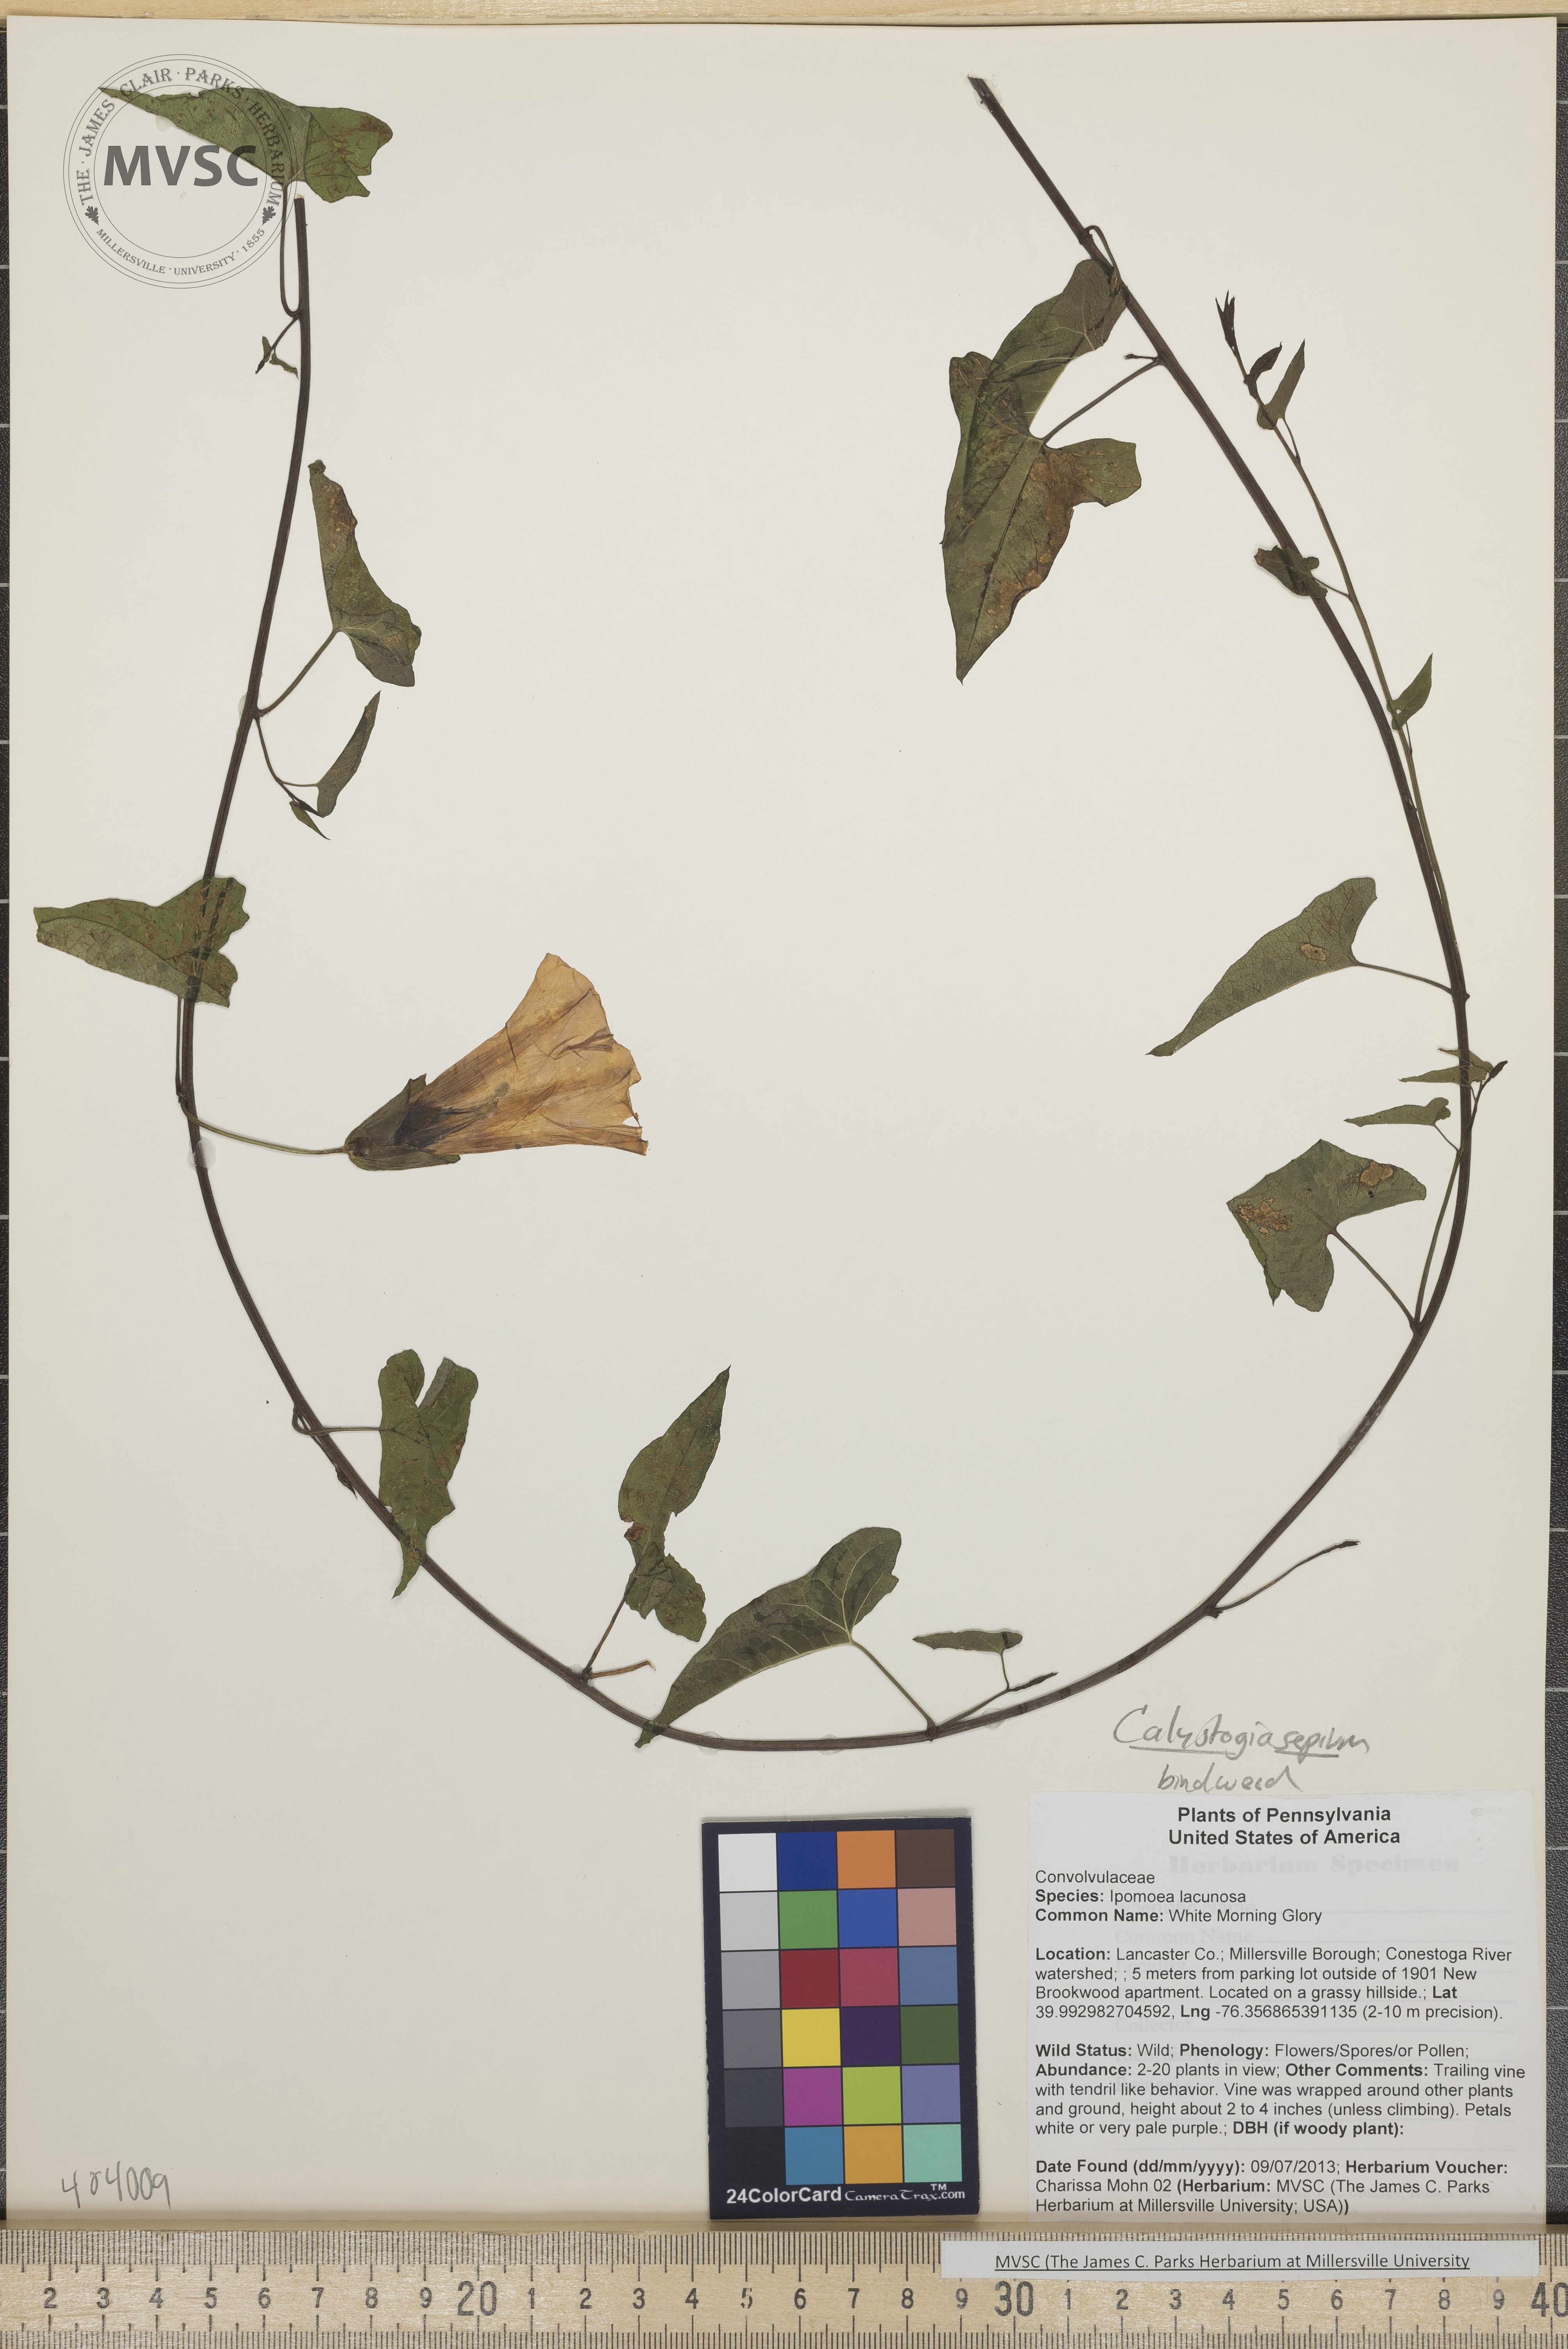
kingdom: Plantae
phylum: Tracheophyta
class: Magnoliopsida
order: Solanales
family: Convolvulaceae
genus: Calystegia
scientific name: Calystegia sepium
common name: Bindweed
